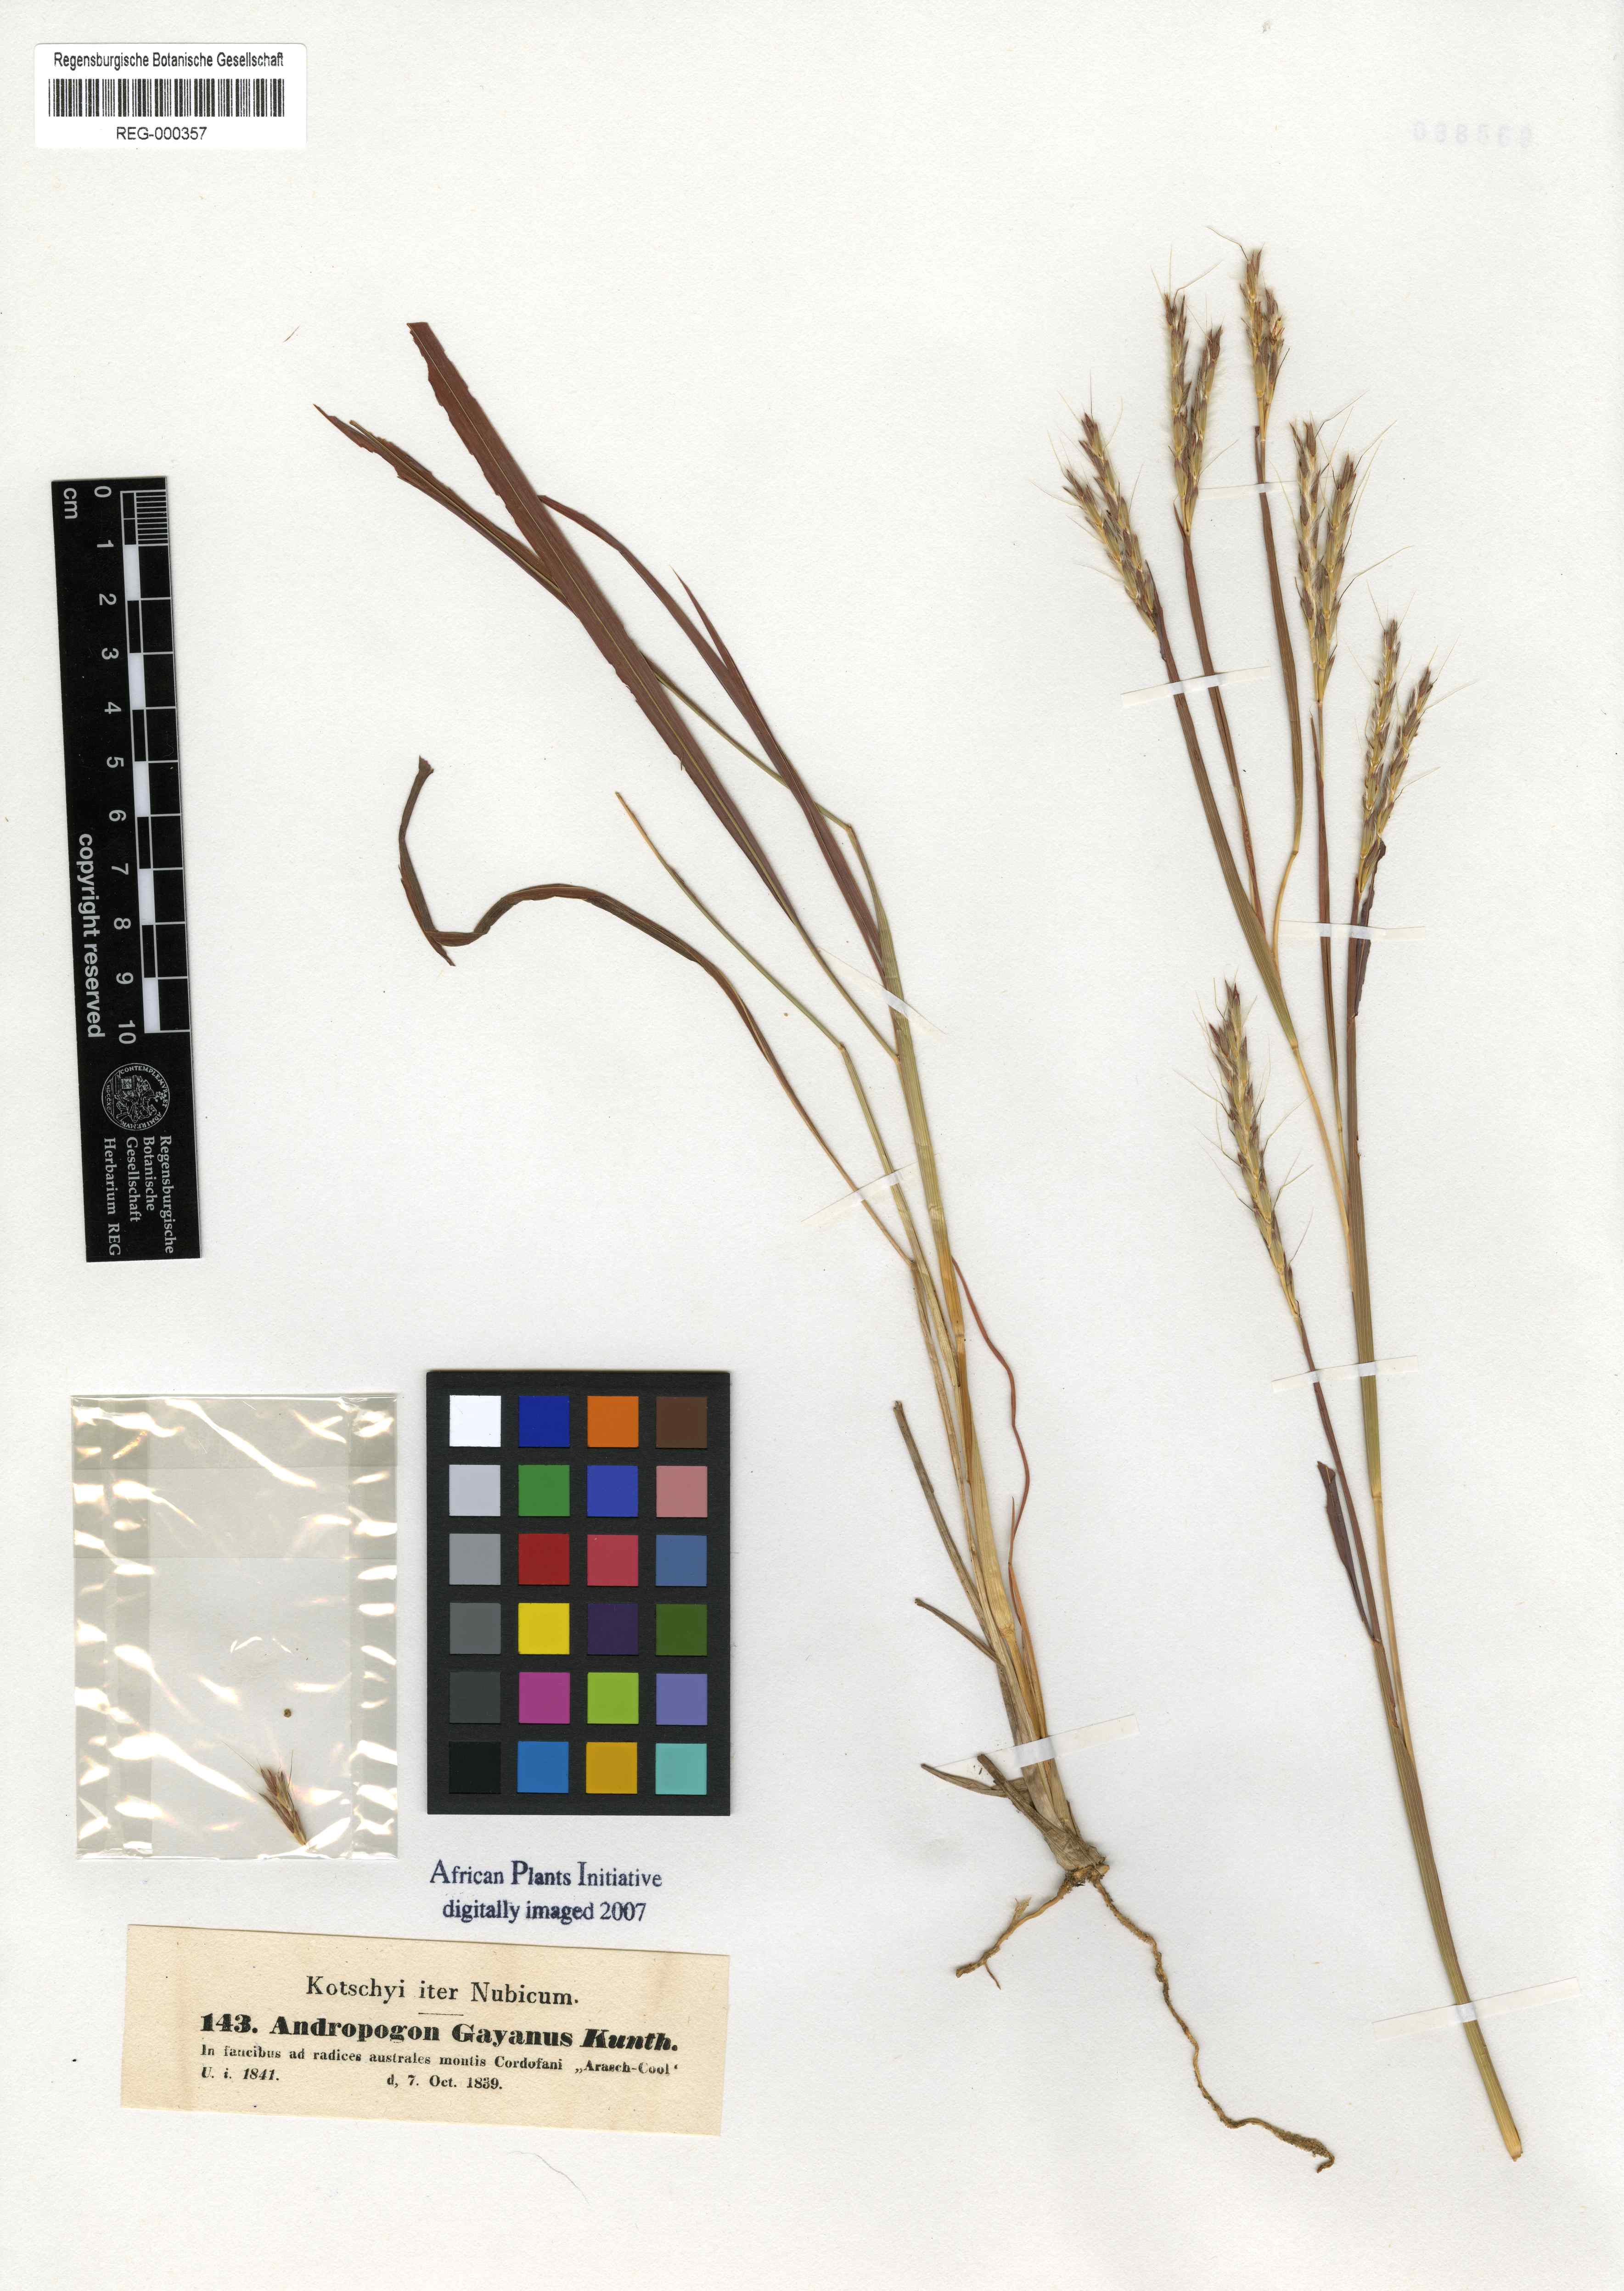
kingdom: Plantae
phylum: Tracheophyta
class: Liliopsida
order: Poales
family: Poaceae
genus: Andropogon
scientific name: Andropogon gayanus
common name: Tambuki grass
